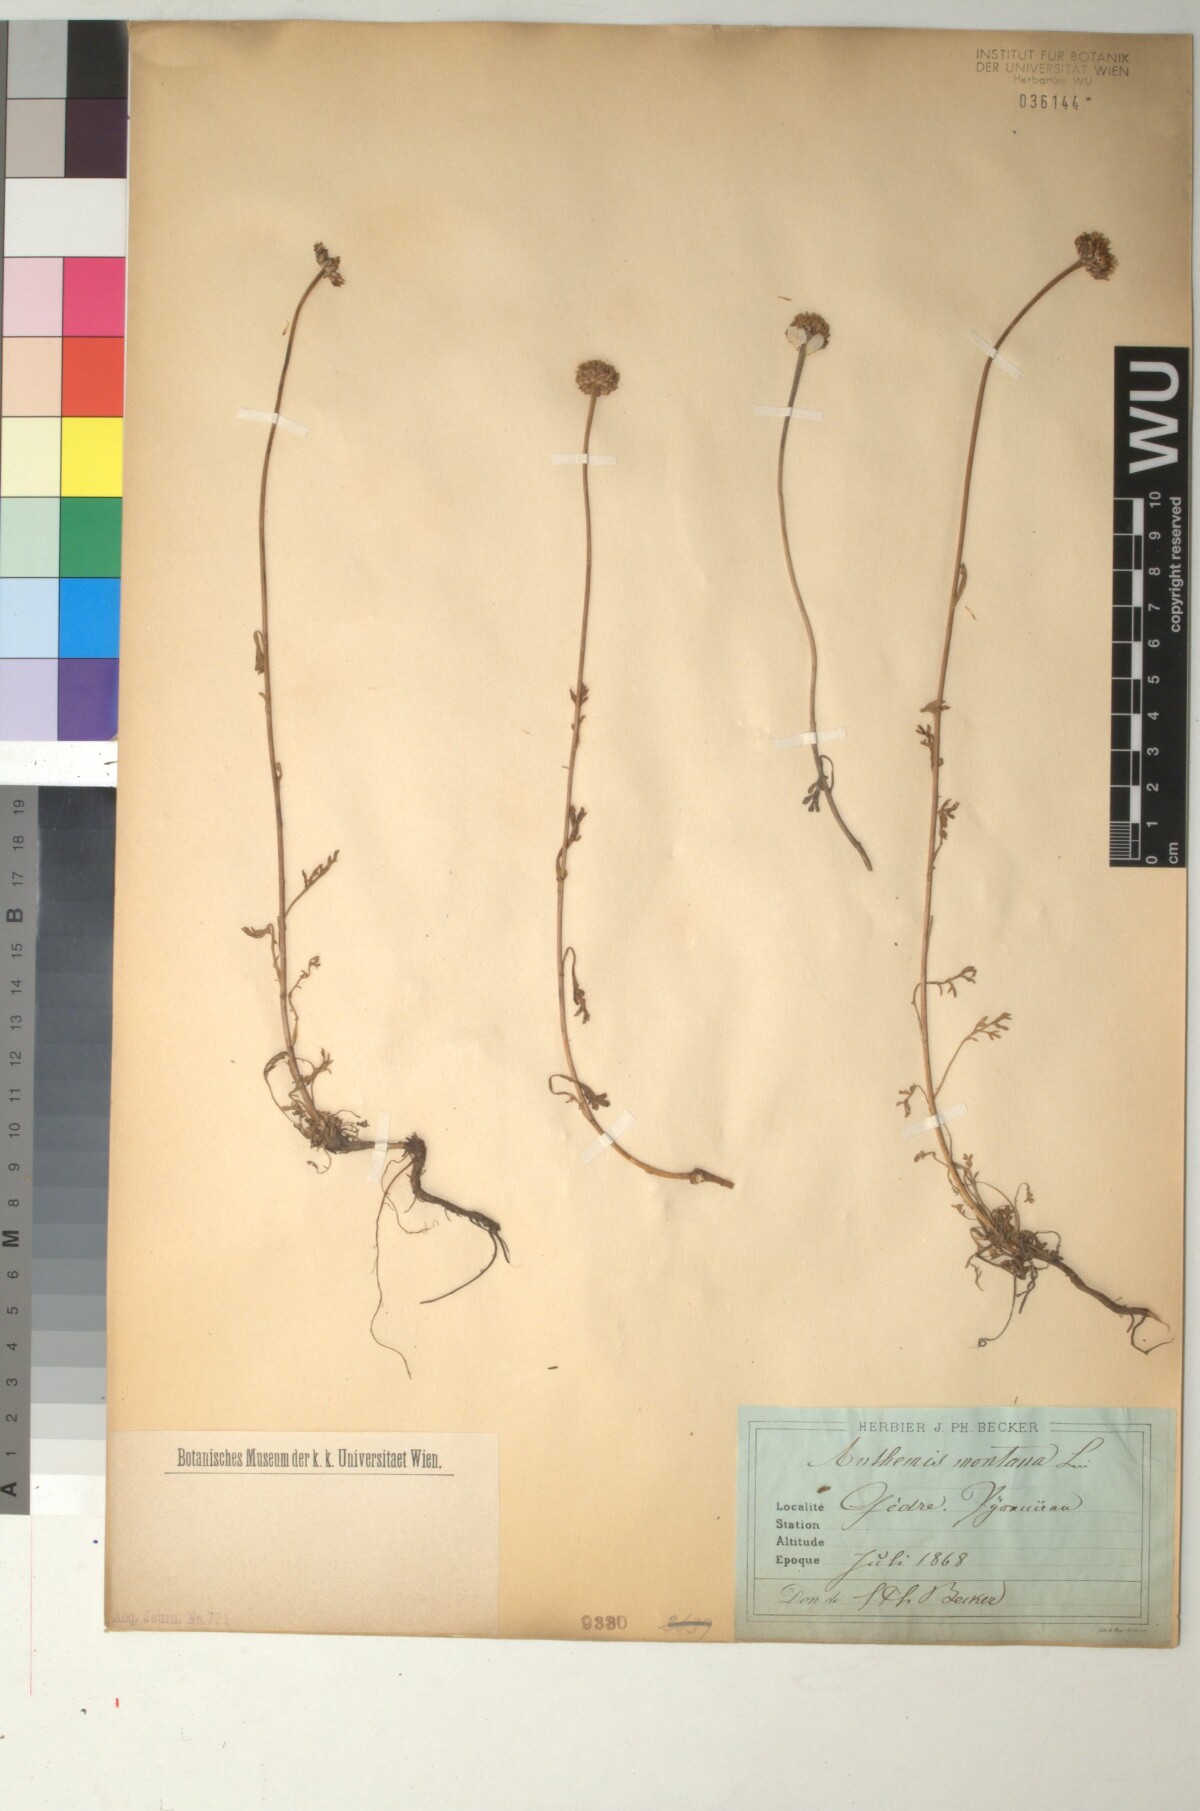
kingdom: Plantae
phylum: Tracheophyta
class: Magnoliopsida
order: Asterales
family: Asteraceae
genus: Anthemis
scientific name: Anthemis cretica
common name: Mountain dog-daisy
